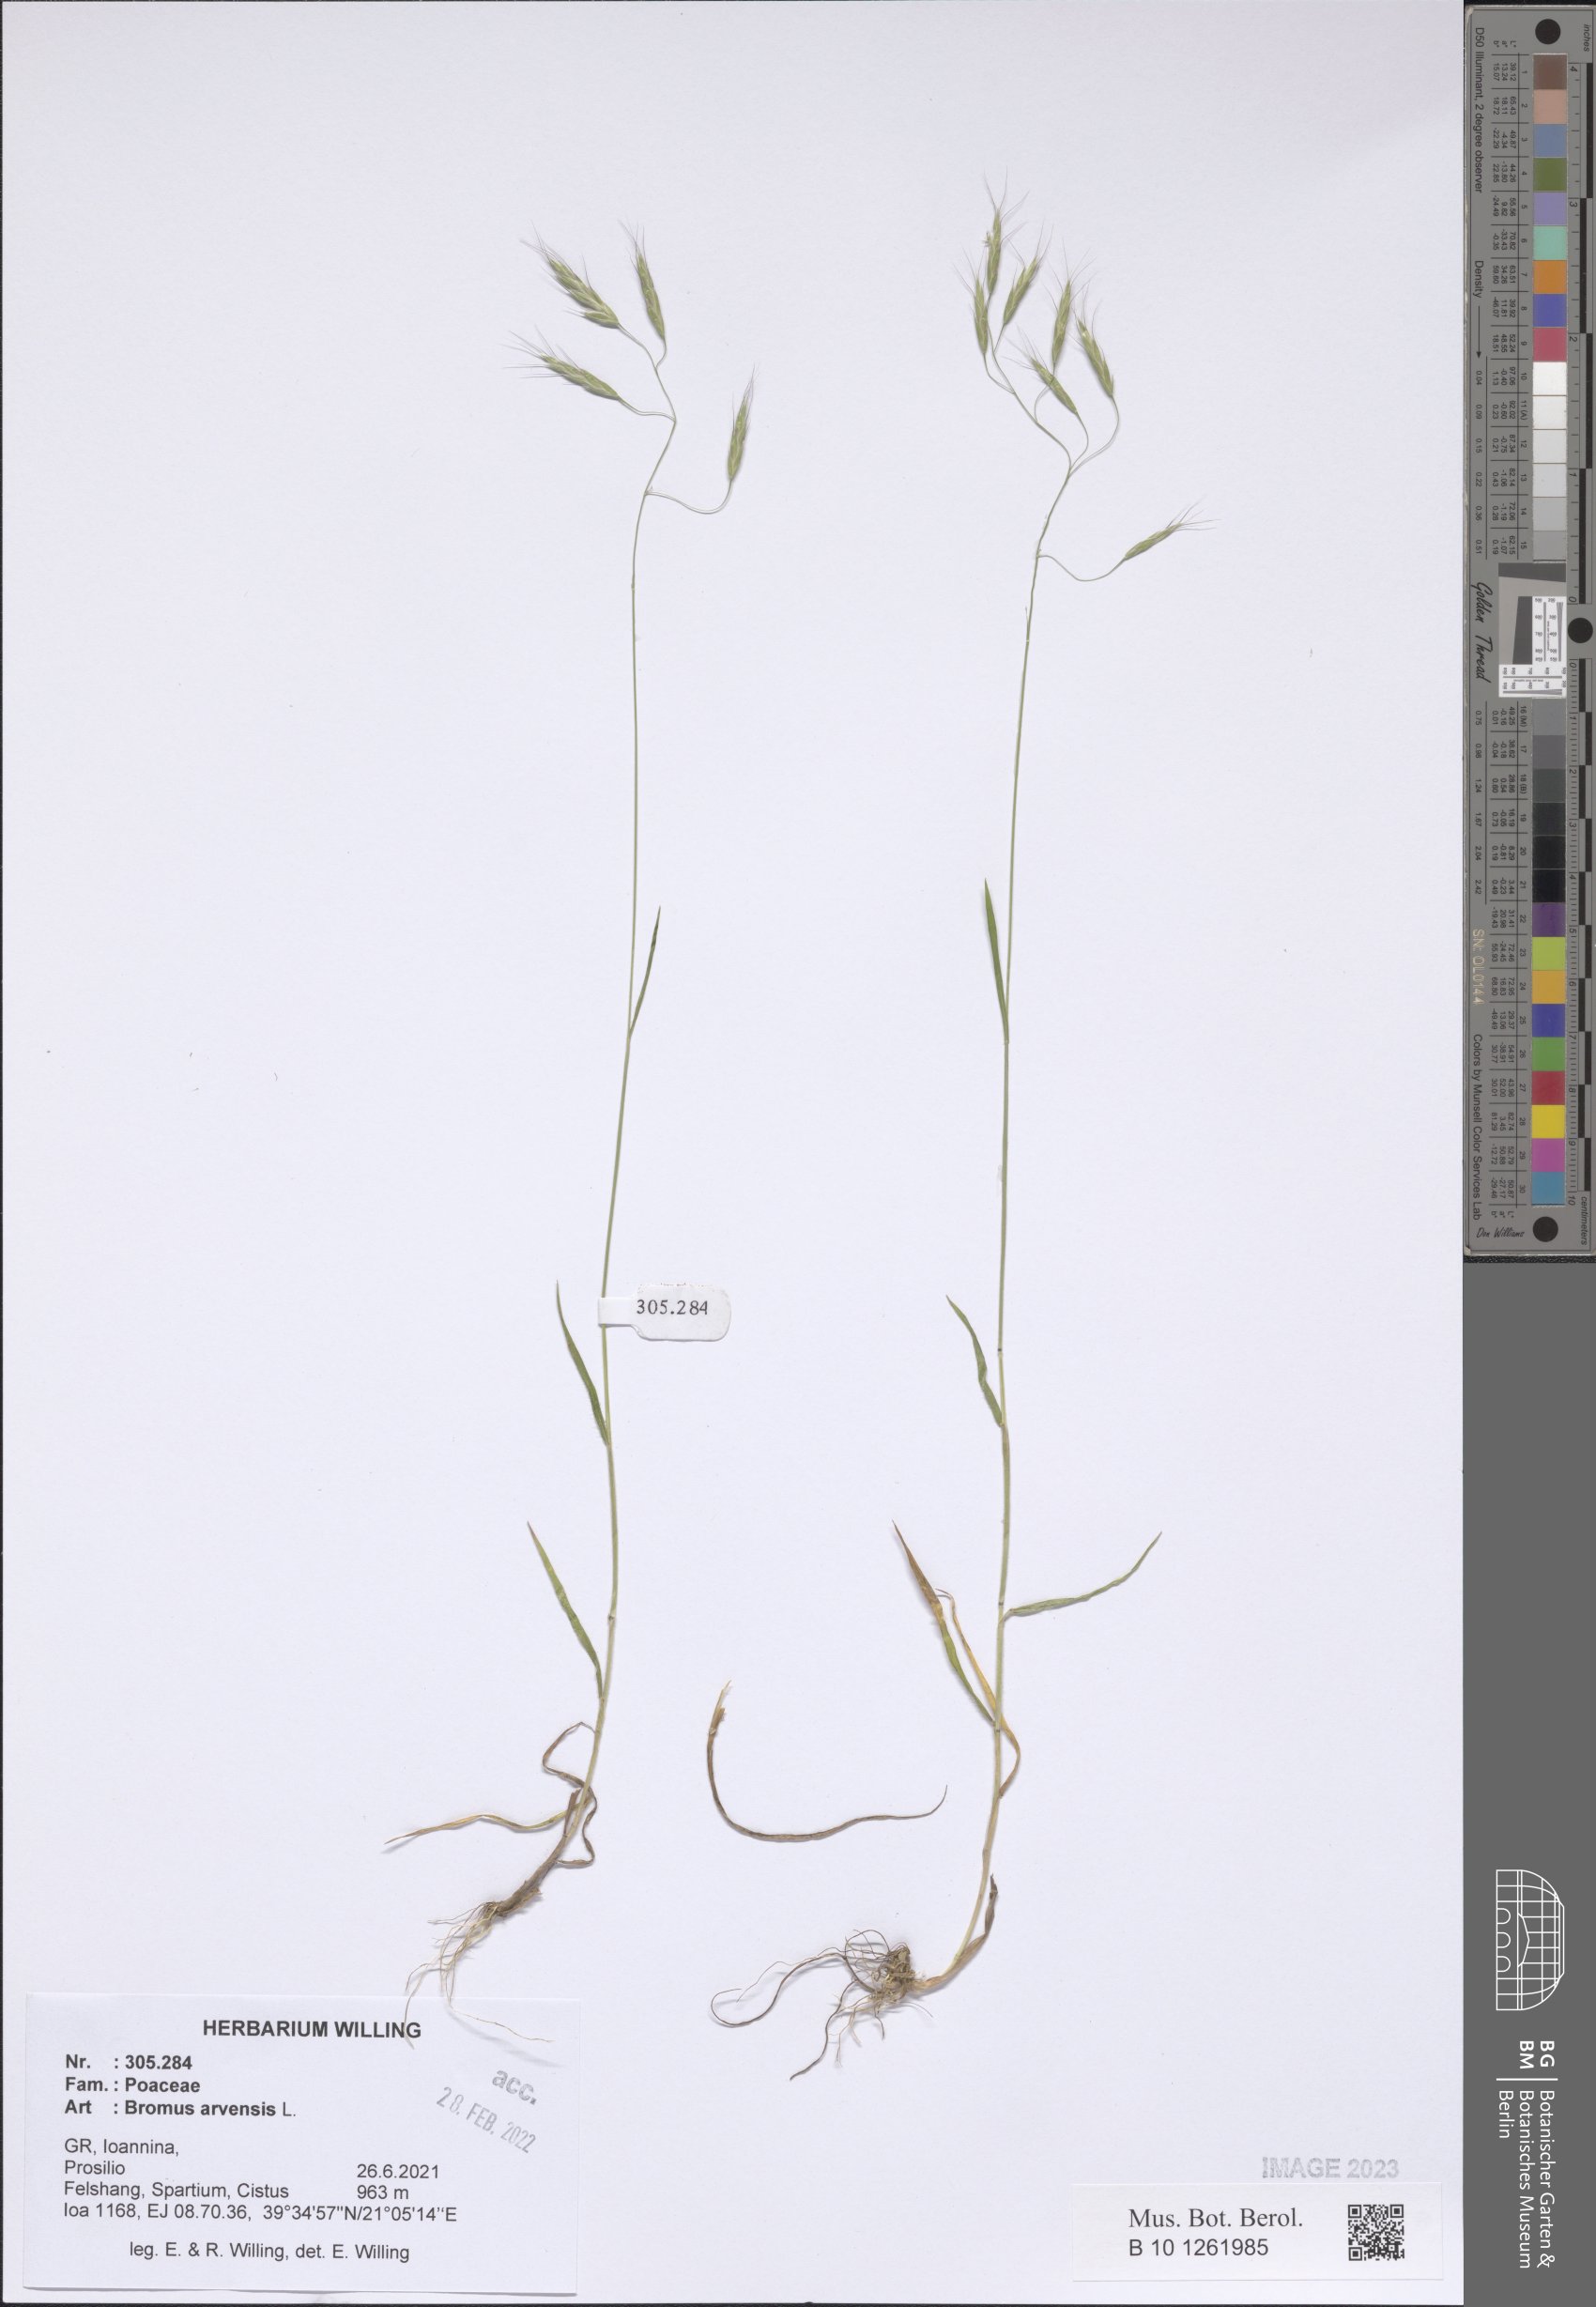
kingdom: Plantae
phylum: Tracheophyta
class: Liliopsida
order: Poales
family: Poaceae
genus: Bromus
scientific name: Bromus arvensis
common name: Field brome
